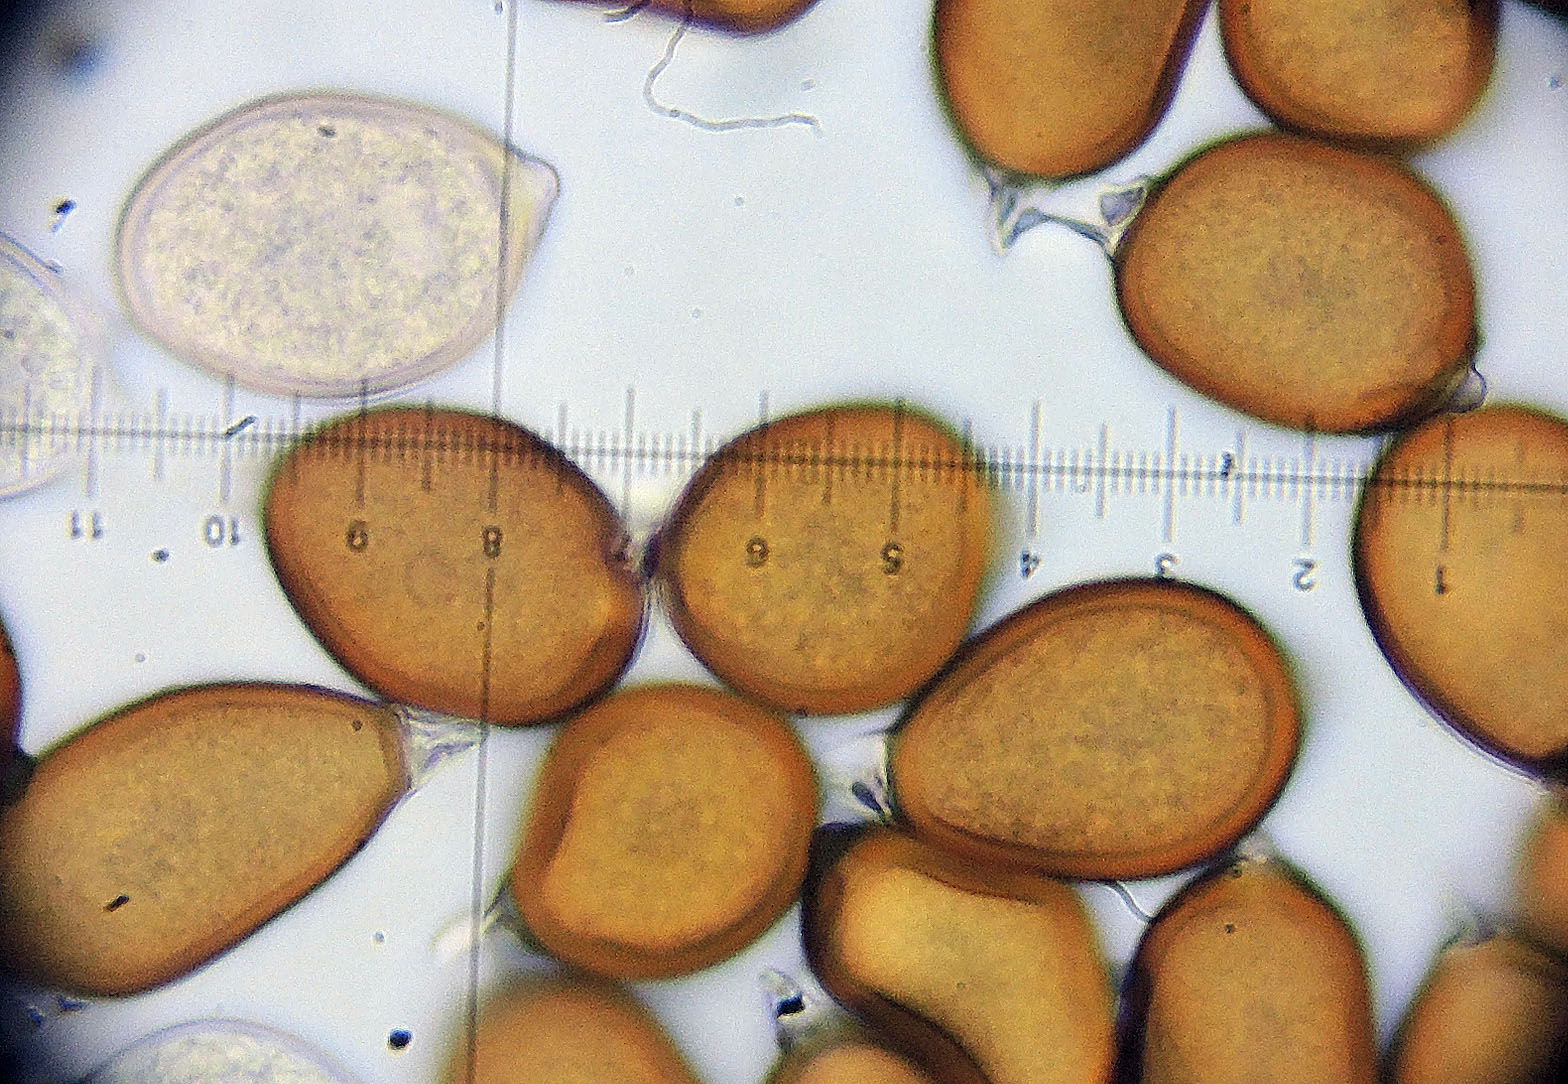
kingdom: Fungi
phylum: Basidiomycota
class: Pucciniomycetes
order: Pucciniales
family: Pucciniaceae
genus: Uromyces
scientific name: Uromyces gageae
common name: Yellow star-of-bethlehem rust
